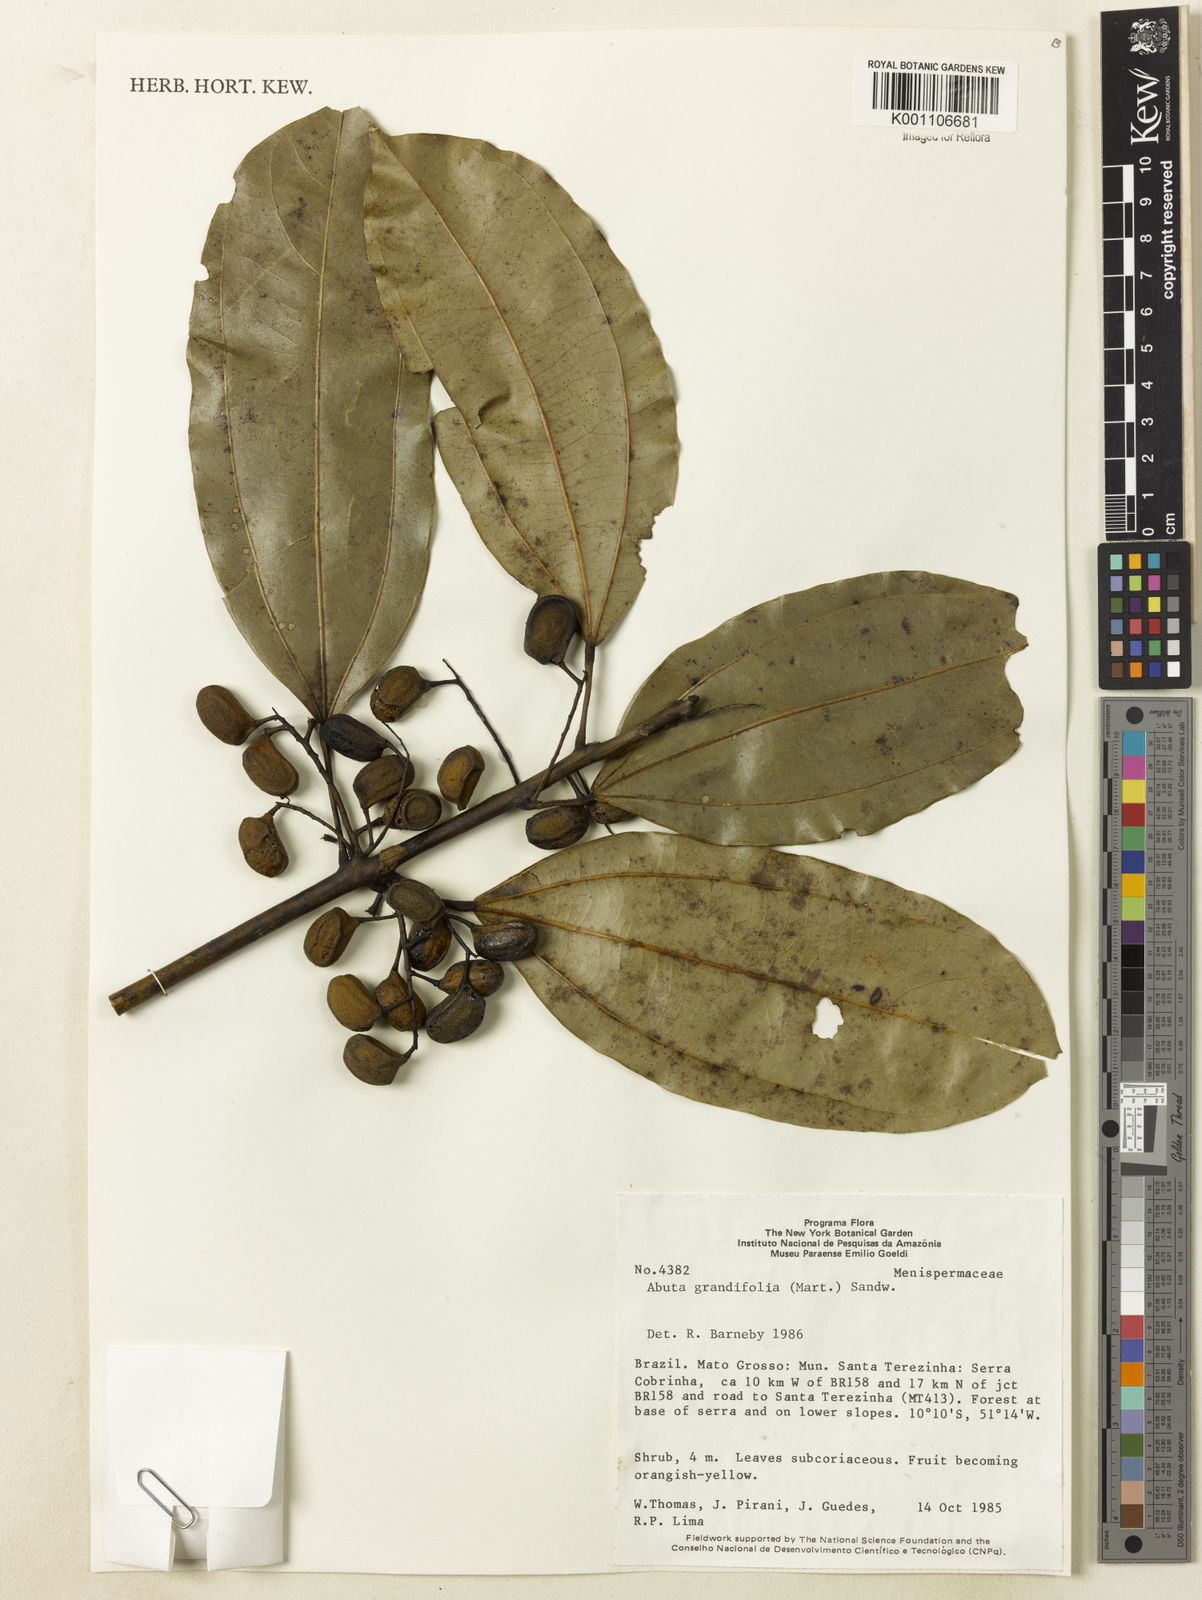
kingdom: Plantae
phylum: Tracheophyta
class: Magnoliopsida
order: Ranunculales
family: Menispermaceae
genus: Abuta
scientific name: Abuta grandifolia
